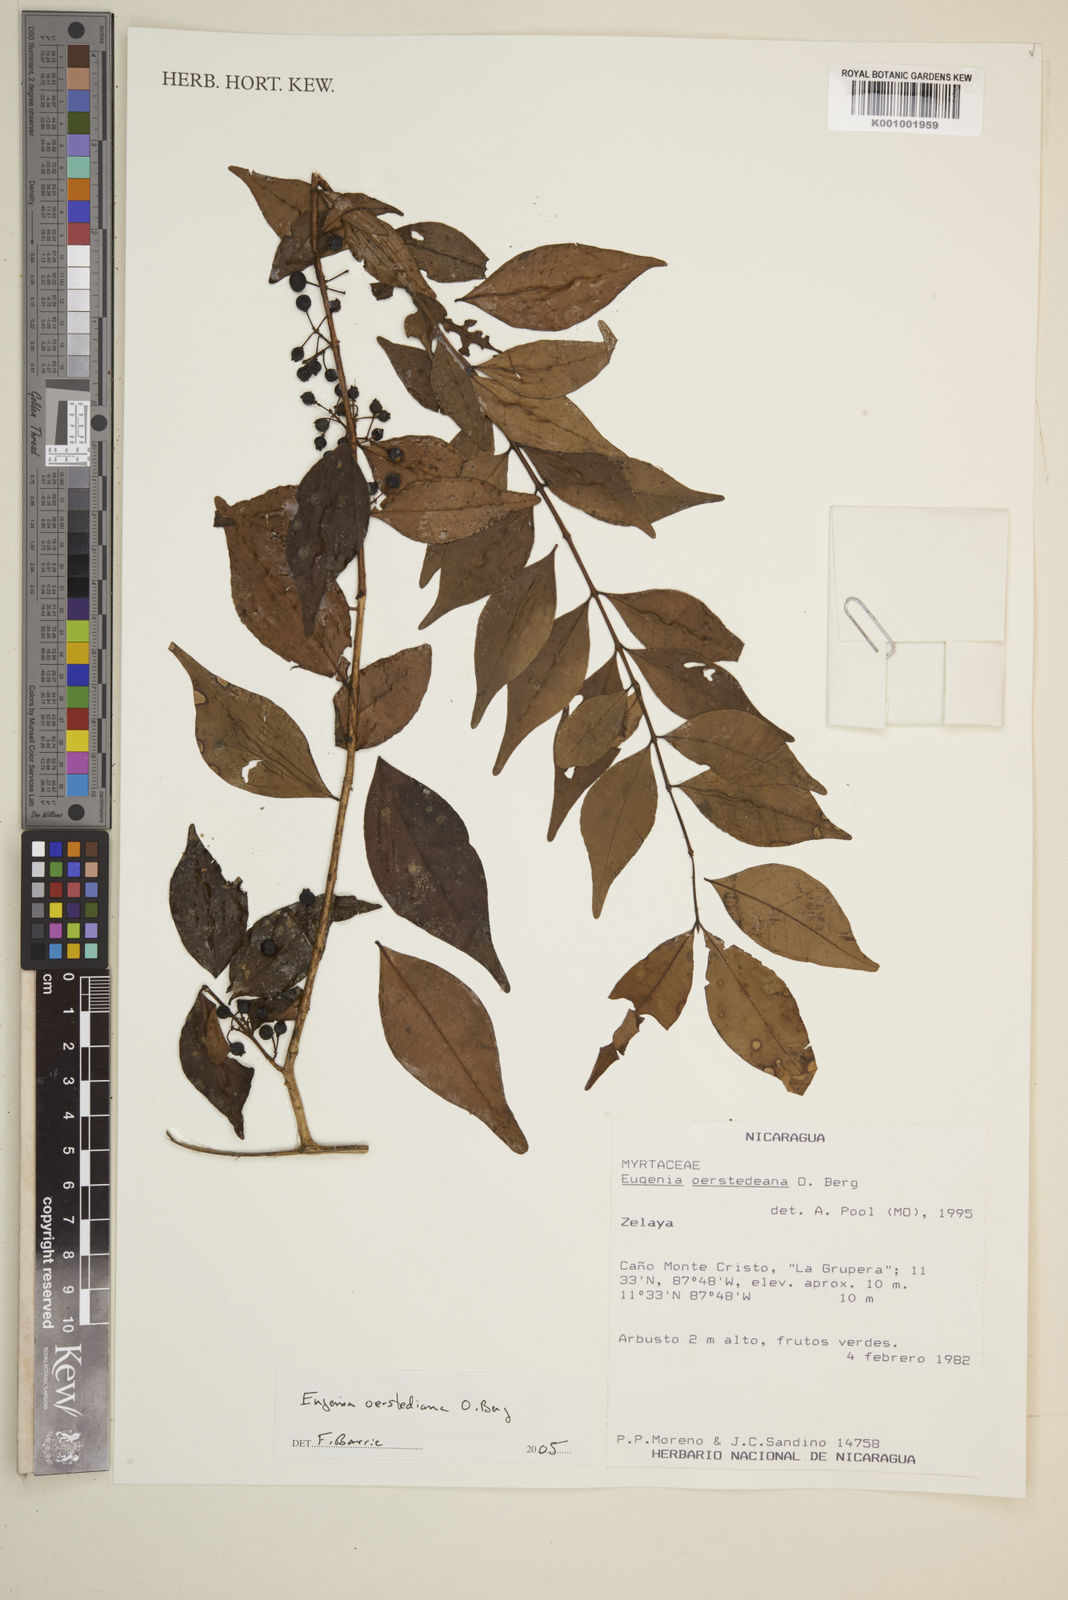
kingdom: Plantae
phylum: Tracheophyta
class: Magnoliopsida
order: Myrtales
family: Myrtaceae
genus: Eugenia
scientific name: Eugenia oerstediana
